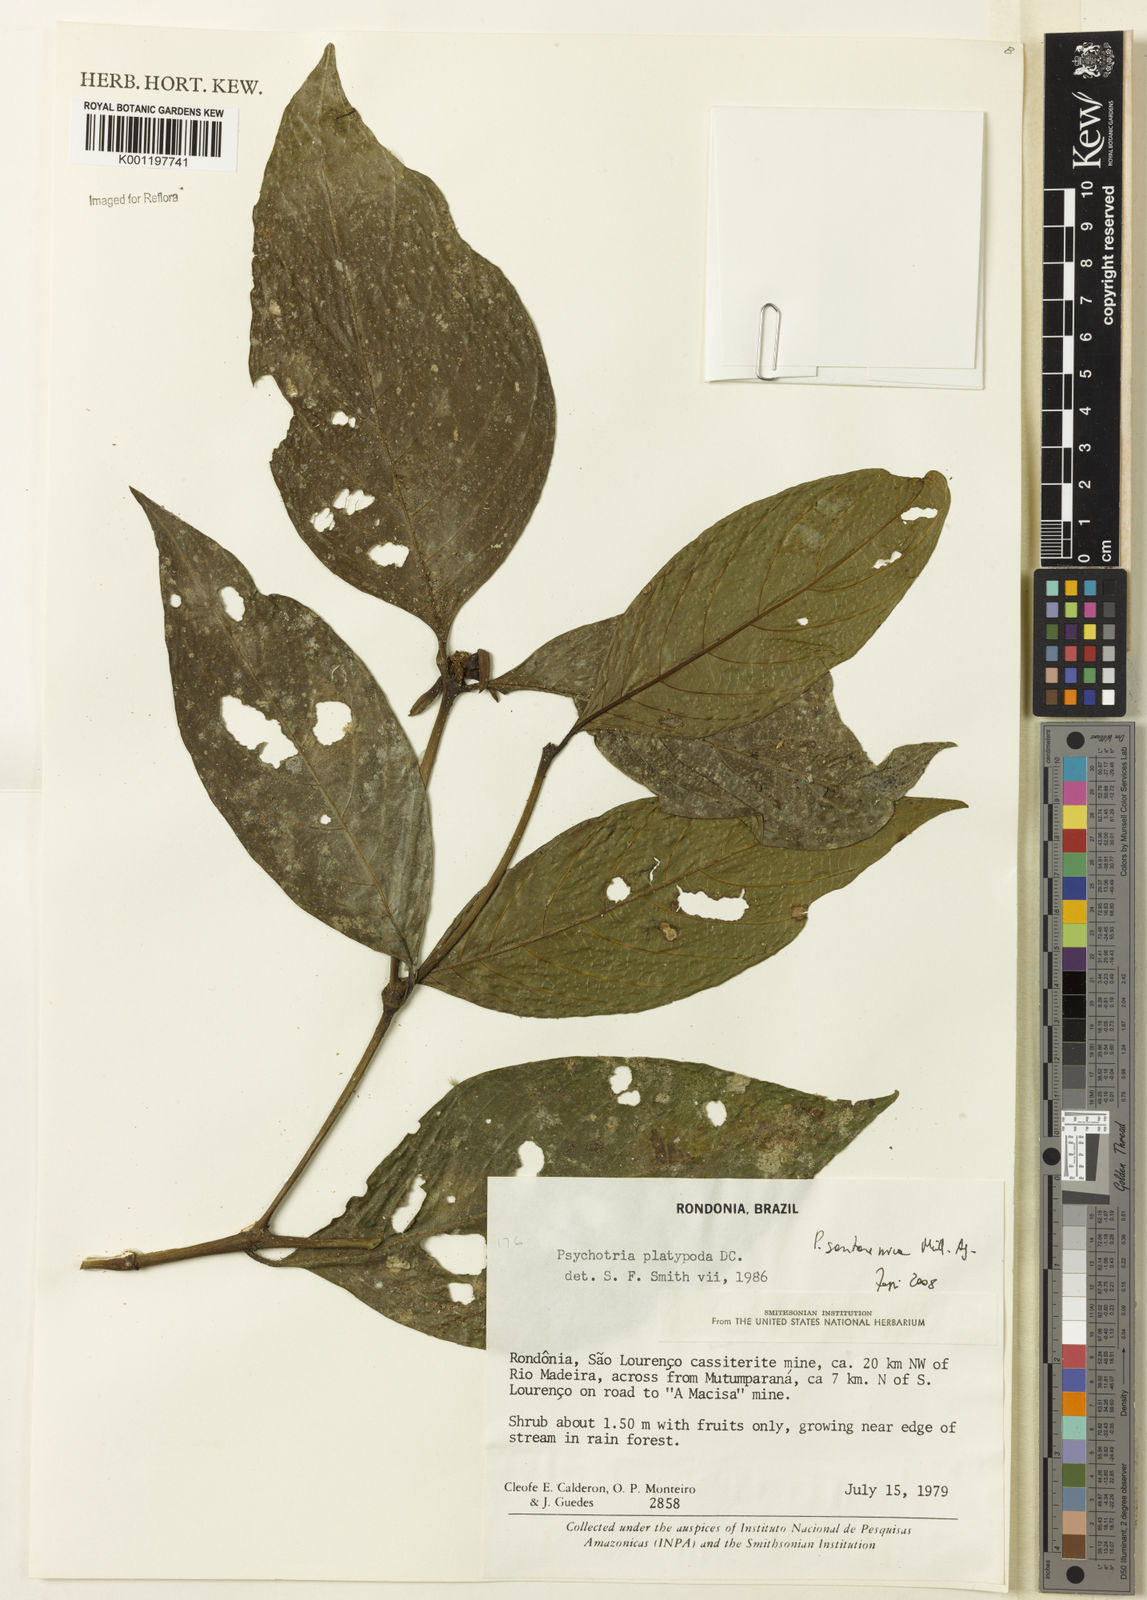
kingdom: Plantae
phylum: Tracheophyta
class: Magnoliopsida
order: Gentianales
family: Rubiaceae
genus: Psychotria
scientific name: Psychotria
